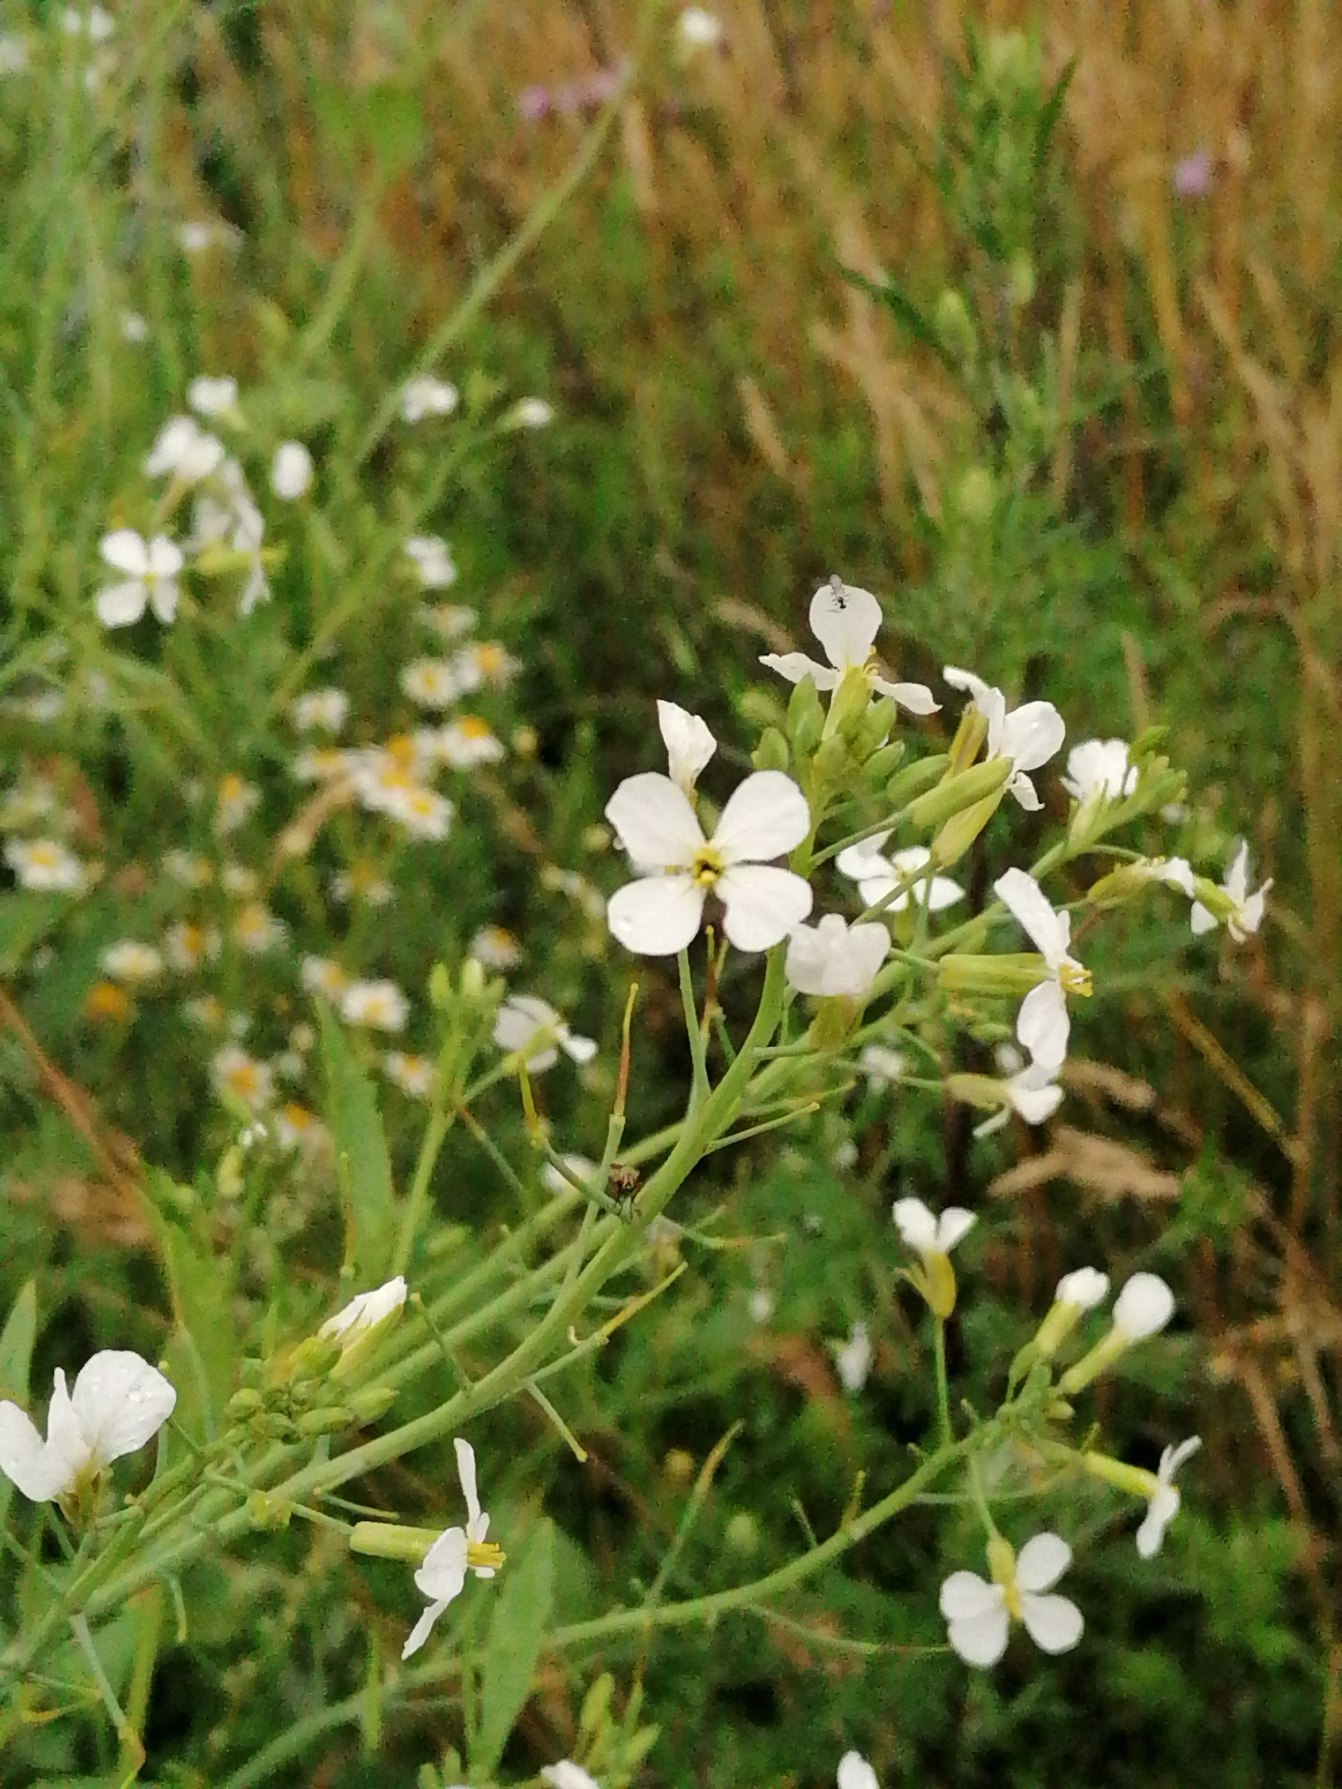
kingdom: Plantae
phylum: Tracheophyta
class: Magnoliopsida
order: Brassicales
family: Brassicaceae
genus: Raphanus
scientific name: Raphanus
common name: Kiddikeslægten
